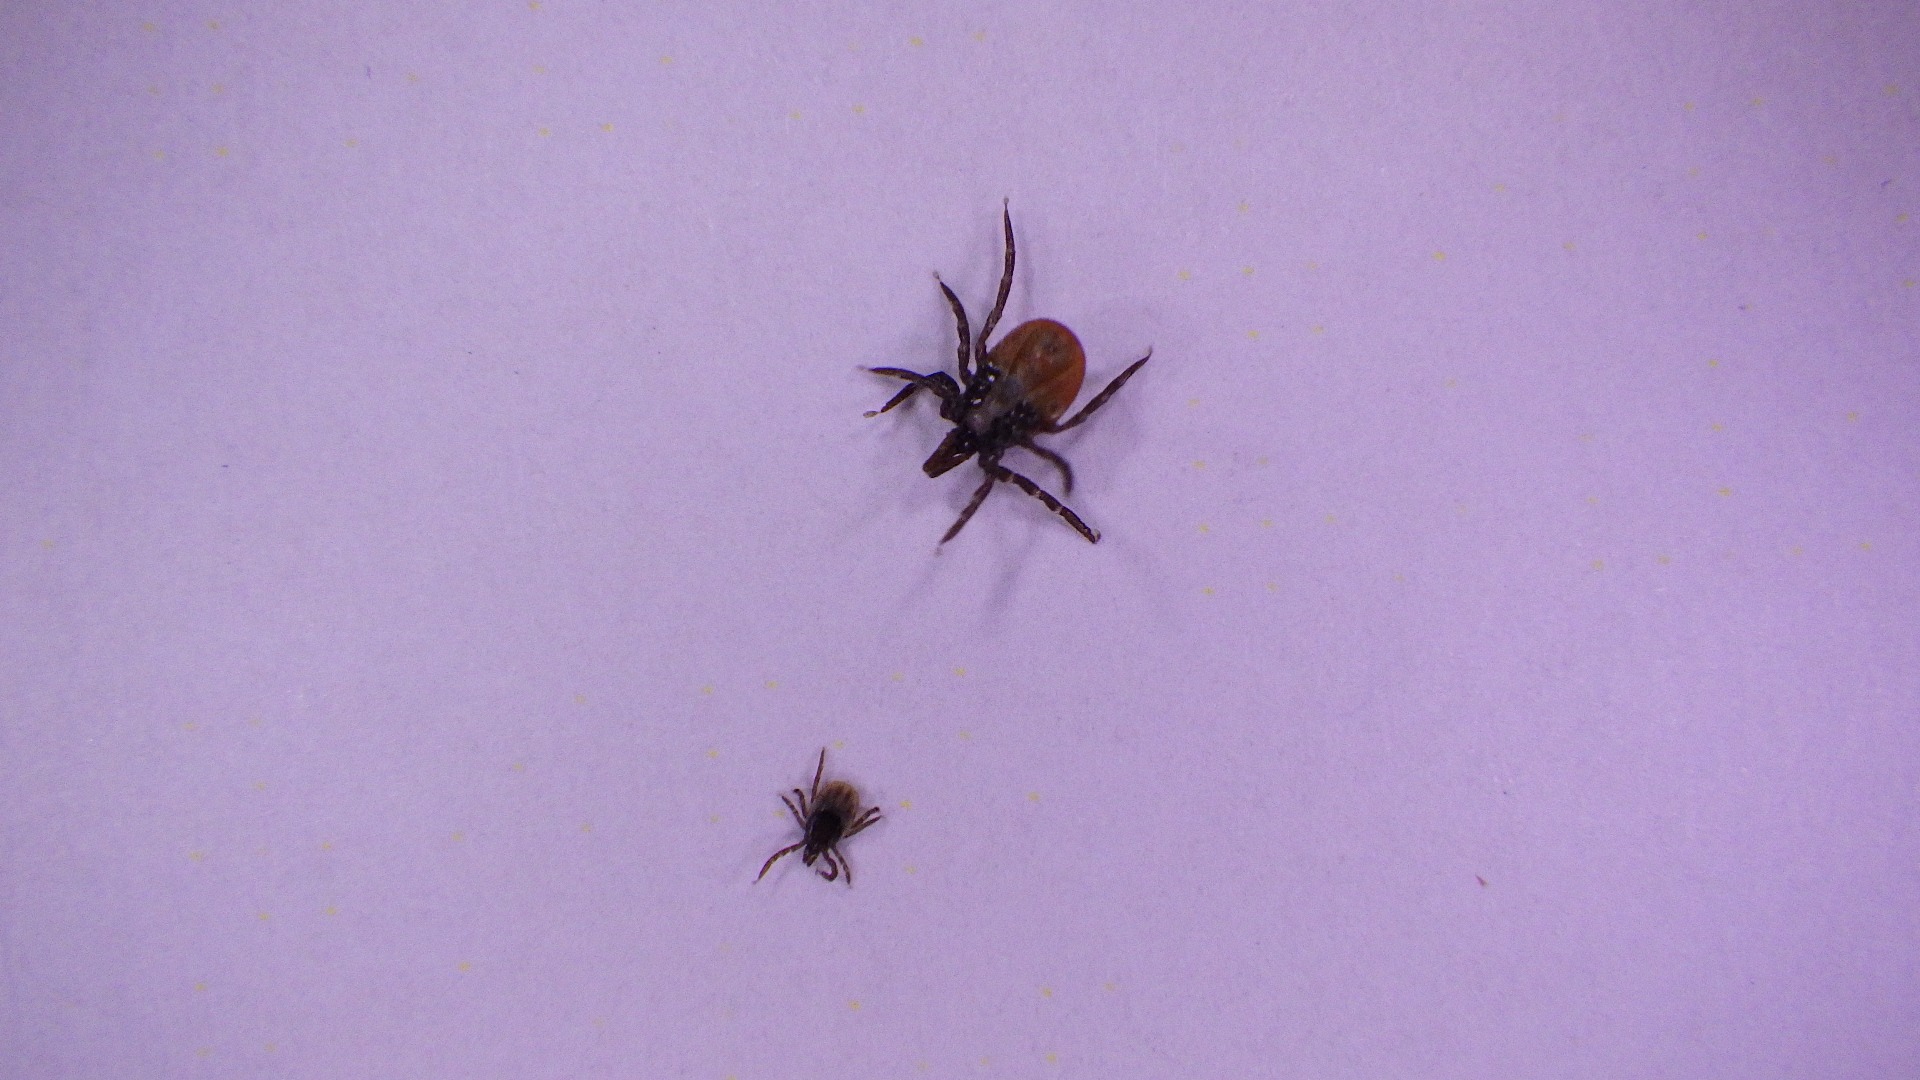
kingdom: Animalia
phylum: Arthropoda
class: Arachnida
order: Ixodida
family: Ixodidae
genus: Ixodes
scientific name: Ixodes ricinus
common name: Skovflåt
